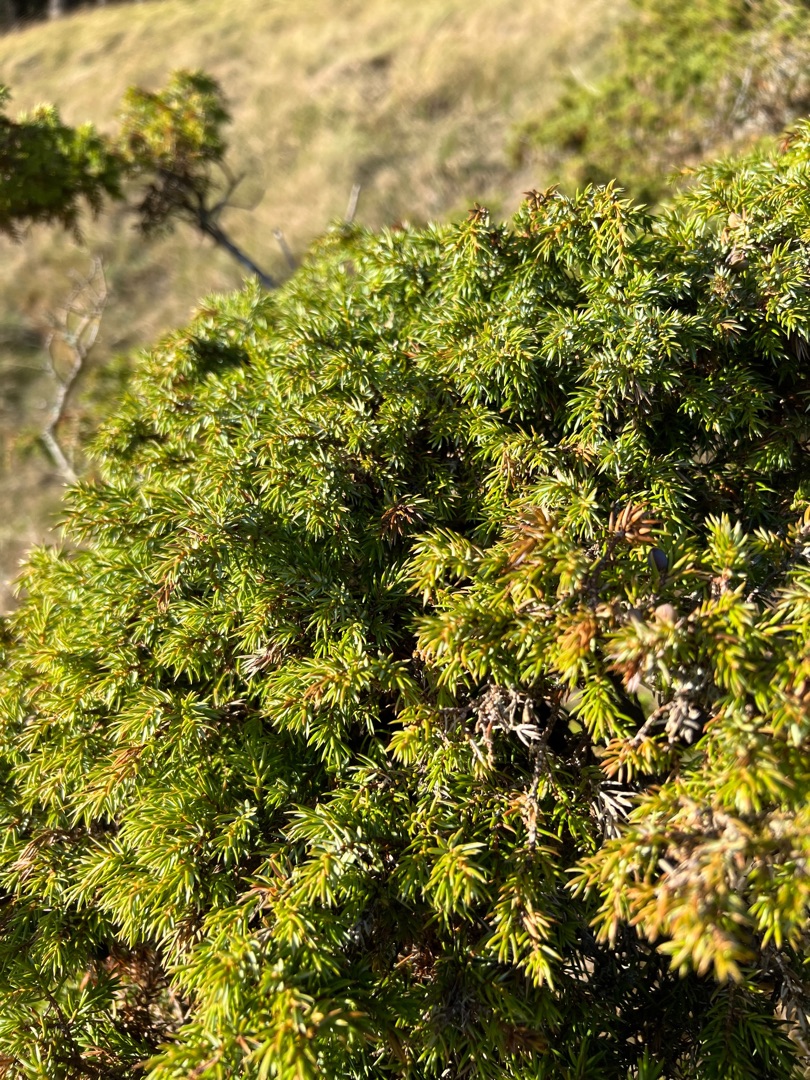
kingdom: Plantae
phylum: Tracheophyta
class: Pinopsida
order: Pinales
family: Cupressaceae
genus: Juniperus
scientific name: Juniperus communis
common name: Almindelig ene
